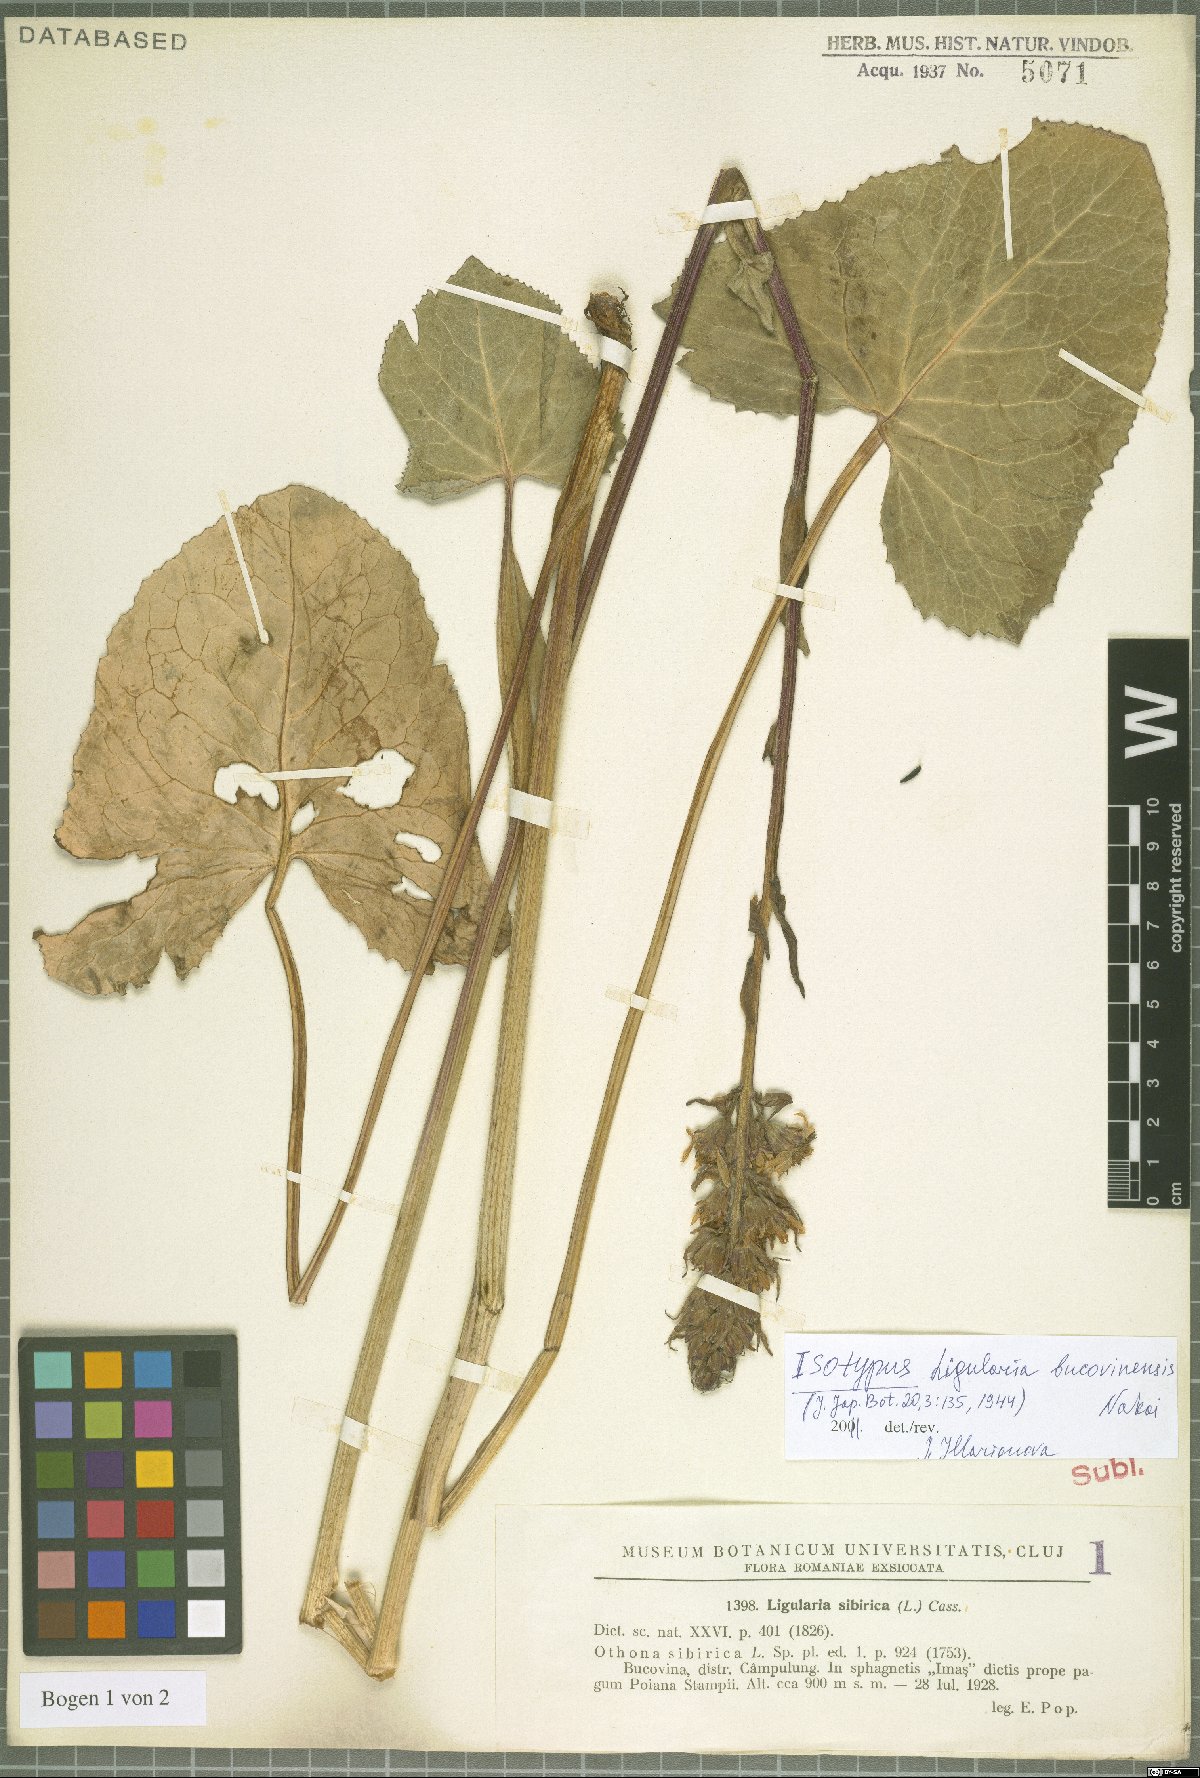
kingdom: Plantae
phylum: Tracheophyta
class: Magnoliopsida
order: Asterales
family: Asteraceae
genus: Ligularia
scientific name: Ligularia sibirica
